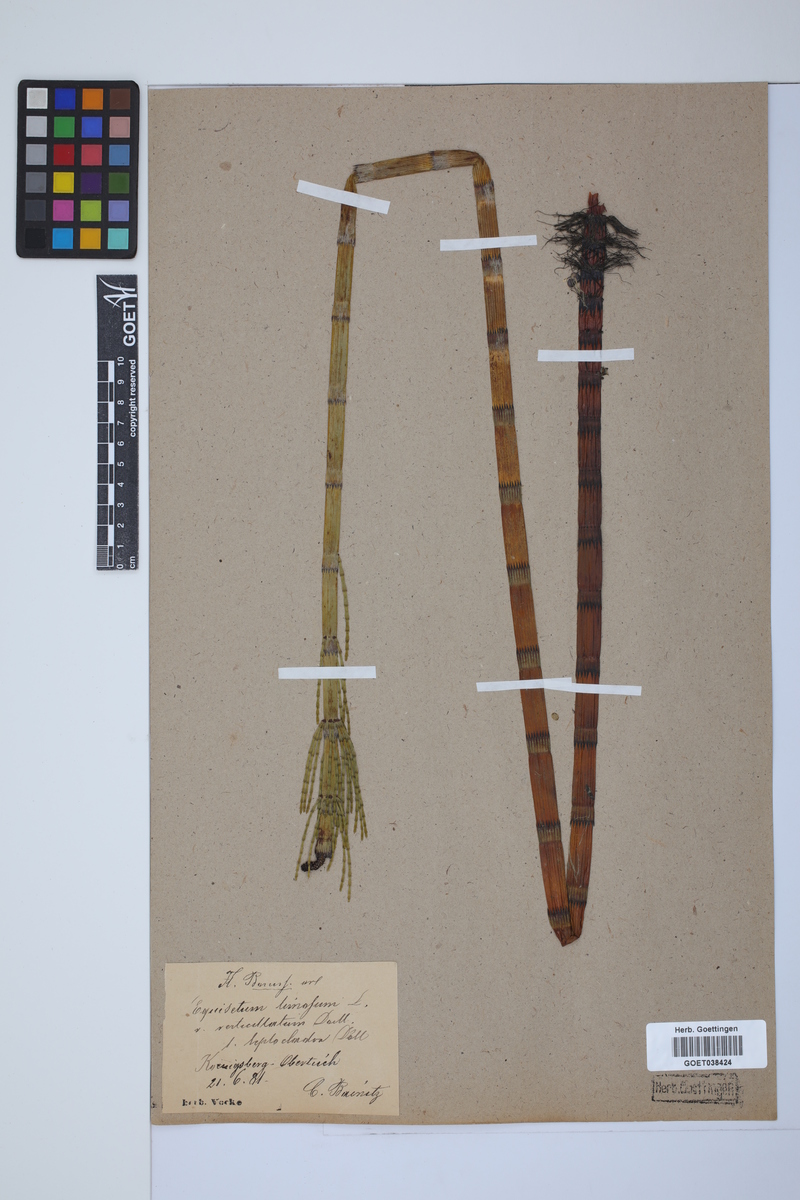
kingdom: Plantae
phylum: Tracheophyta
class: Polypodiopsida
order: Equisetales
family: Equisetaceae
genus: Equisetum
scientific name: Equisetum fluviatile
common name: Water horsetail
